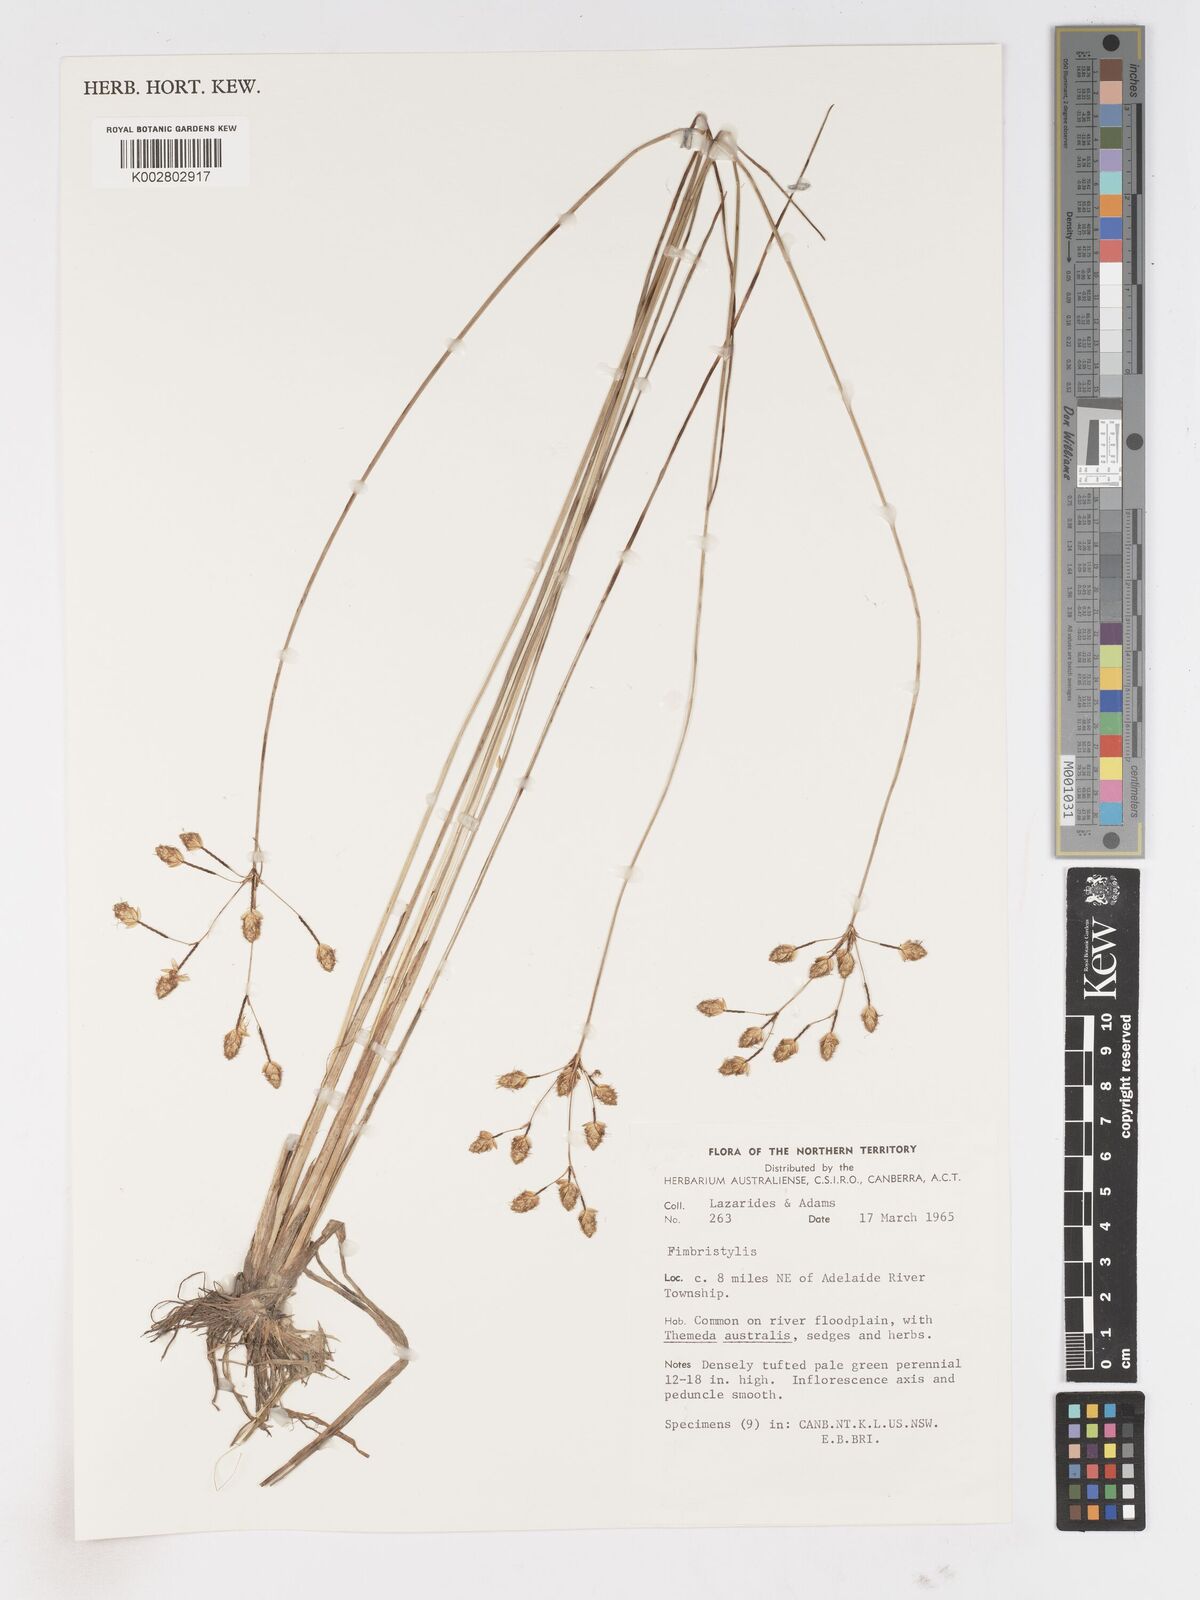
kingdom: Plantae
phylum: Tracheophyta
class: Liliopsida
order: Poales
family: Cyperaceae
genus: Fimbristylis
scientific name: Fimbristylis
